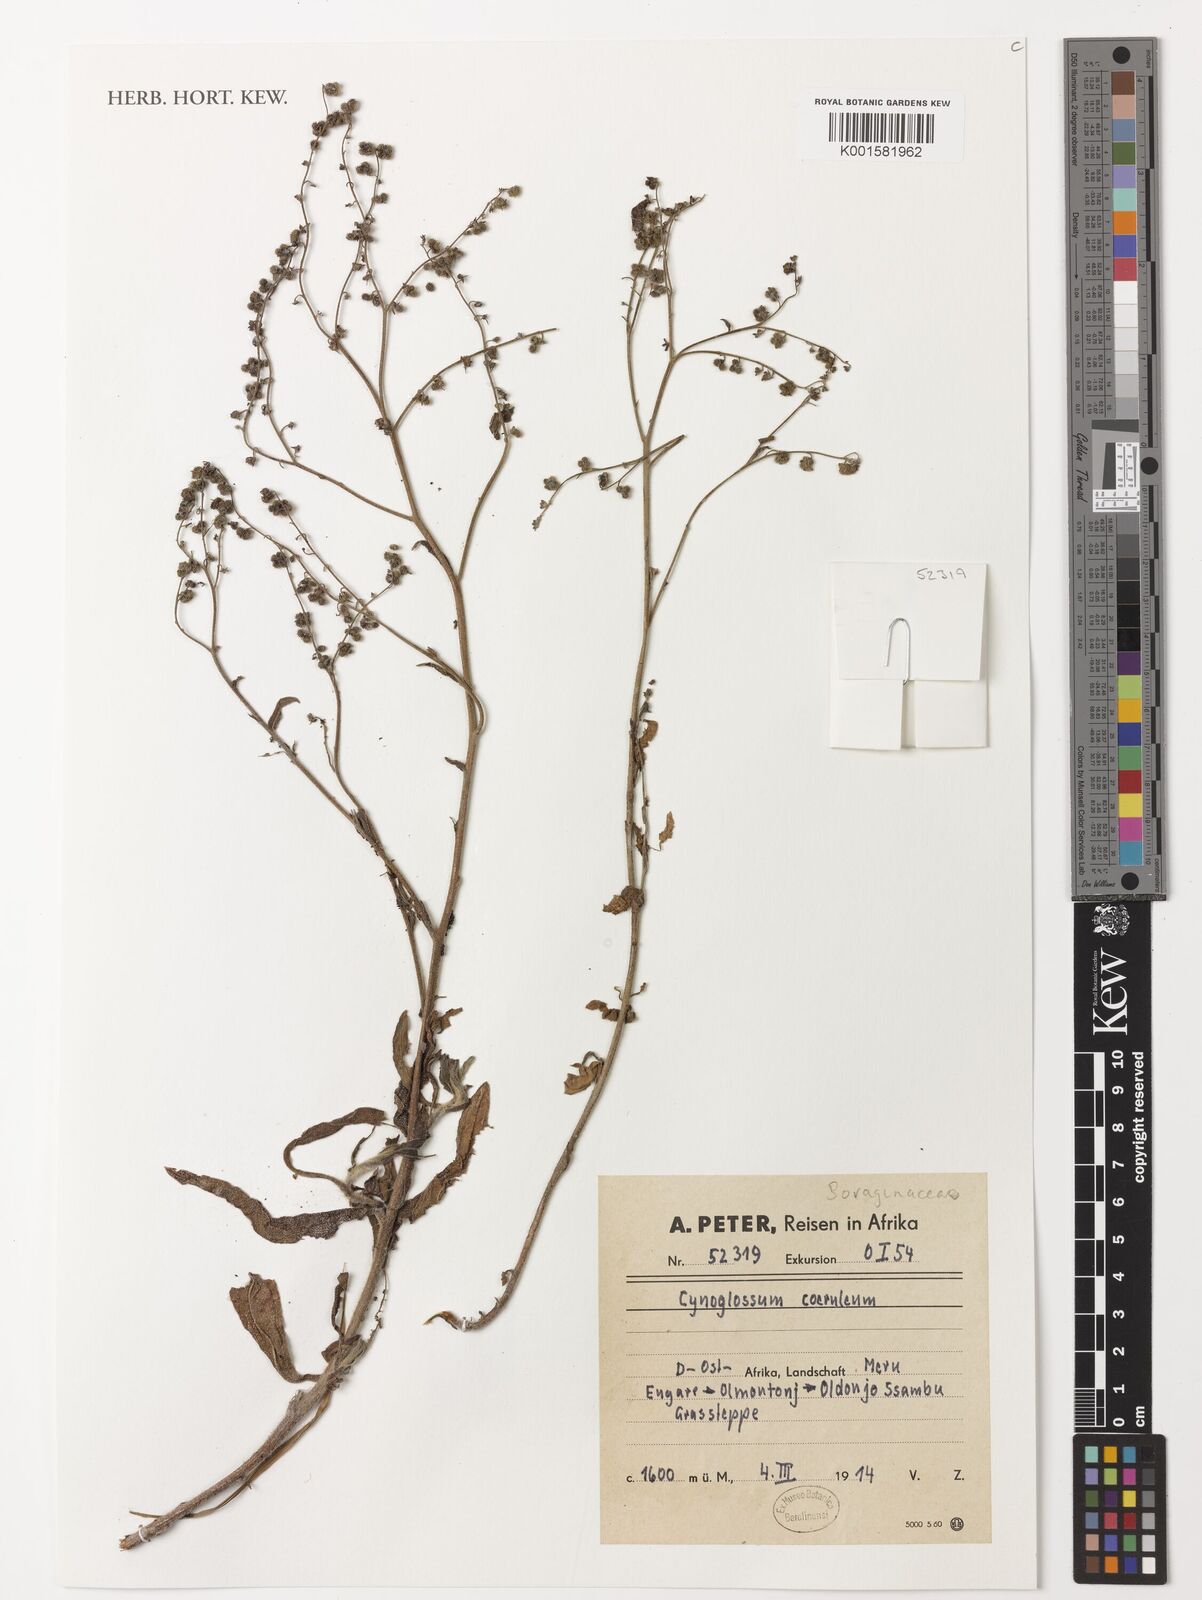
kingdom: Plantae
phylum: Tracheophyta
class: Magnoliopsida
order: Boraginales
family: Boraginaceae
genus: Paracynoglossum
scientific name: Paracynoglossum afrocaeruleum
